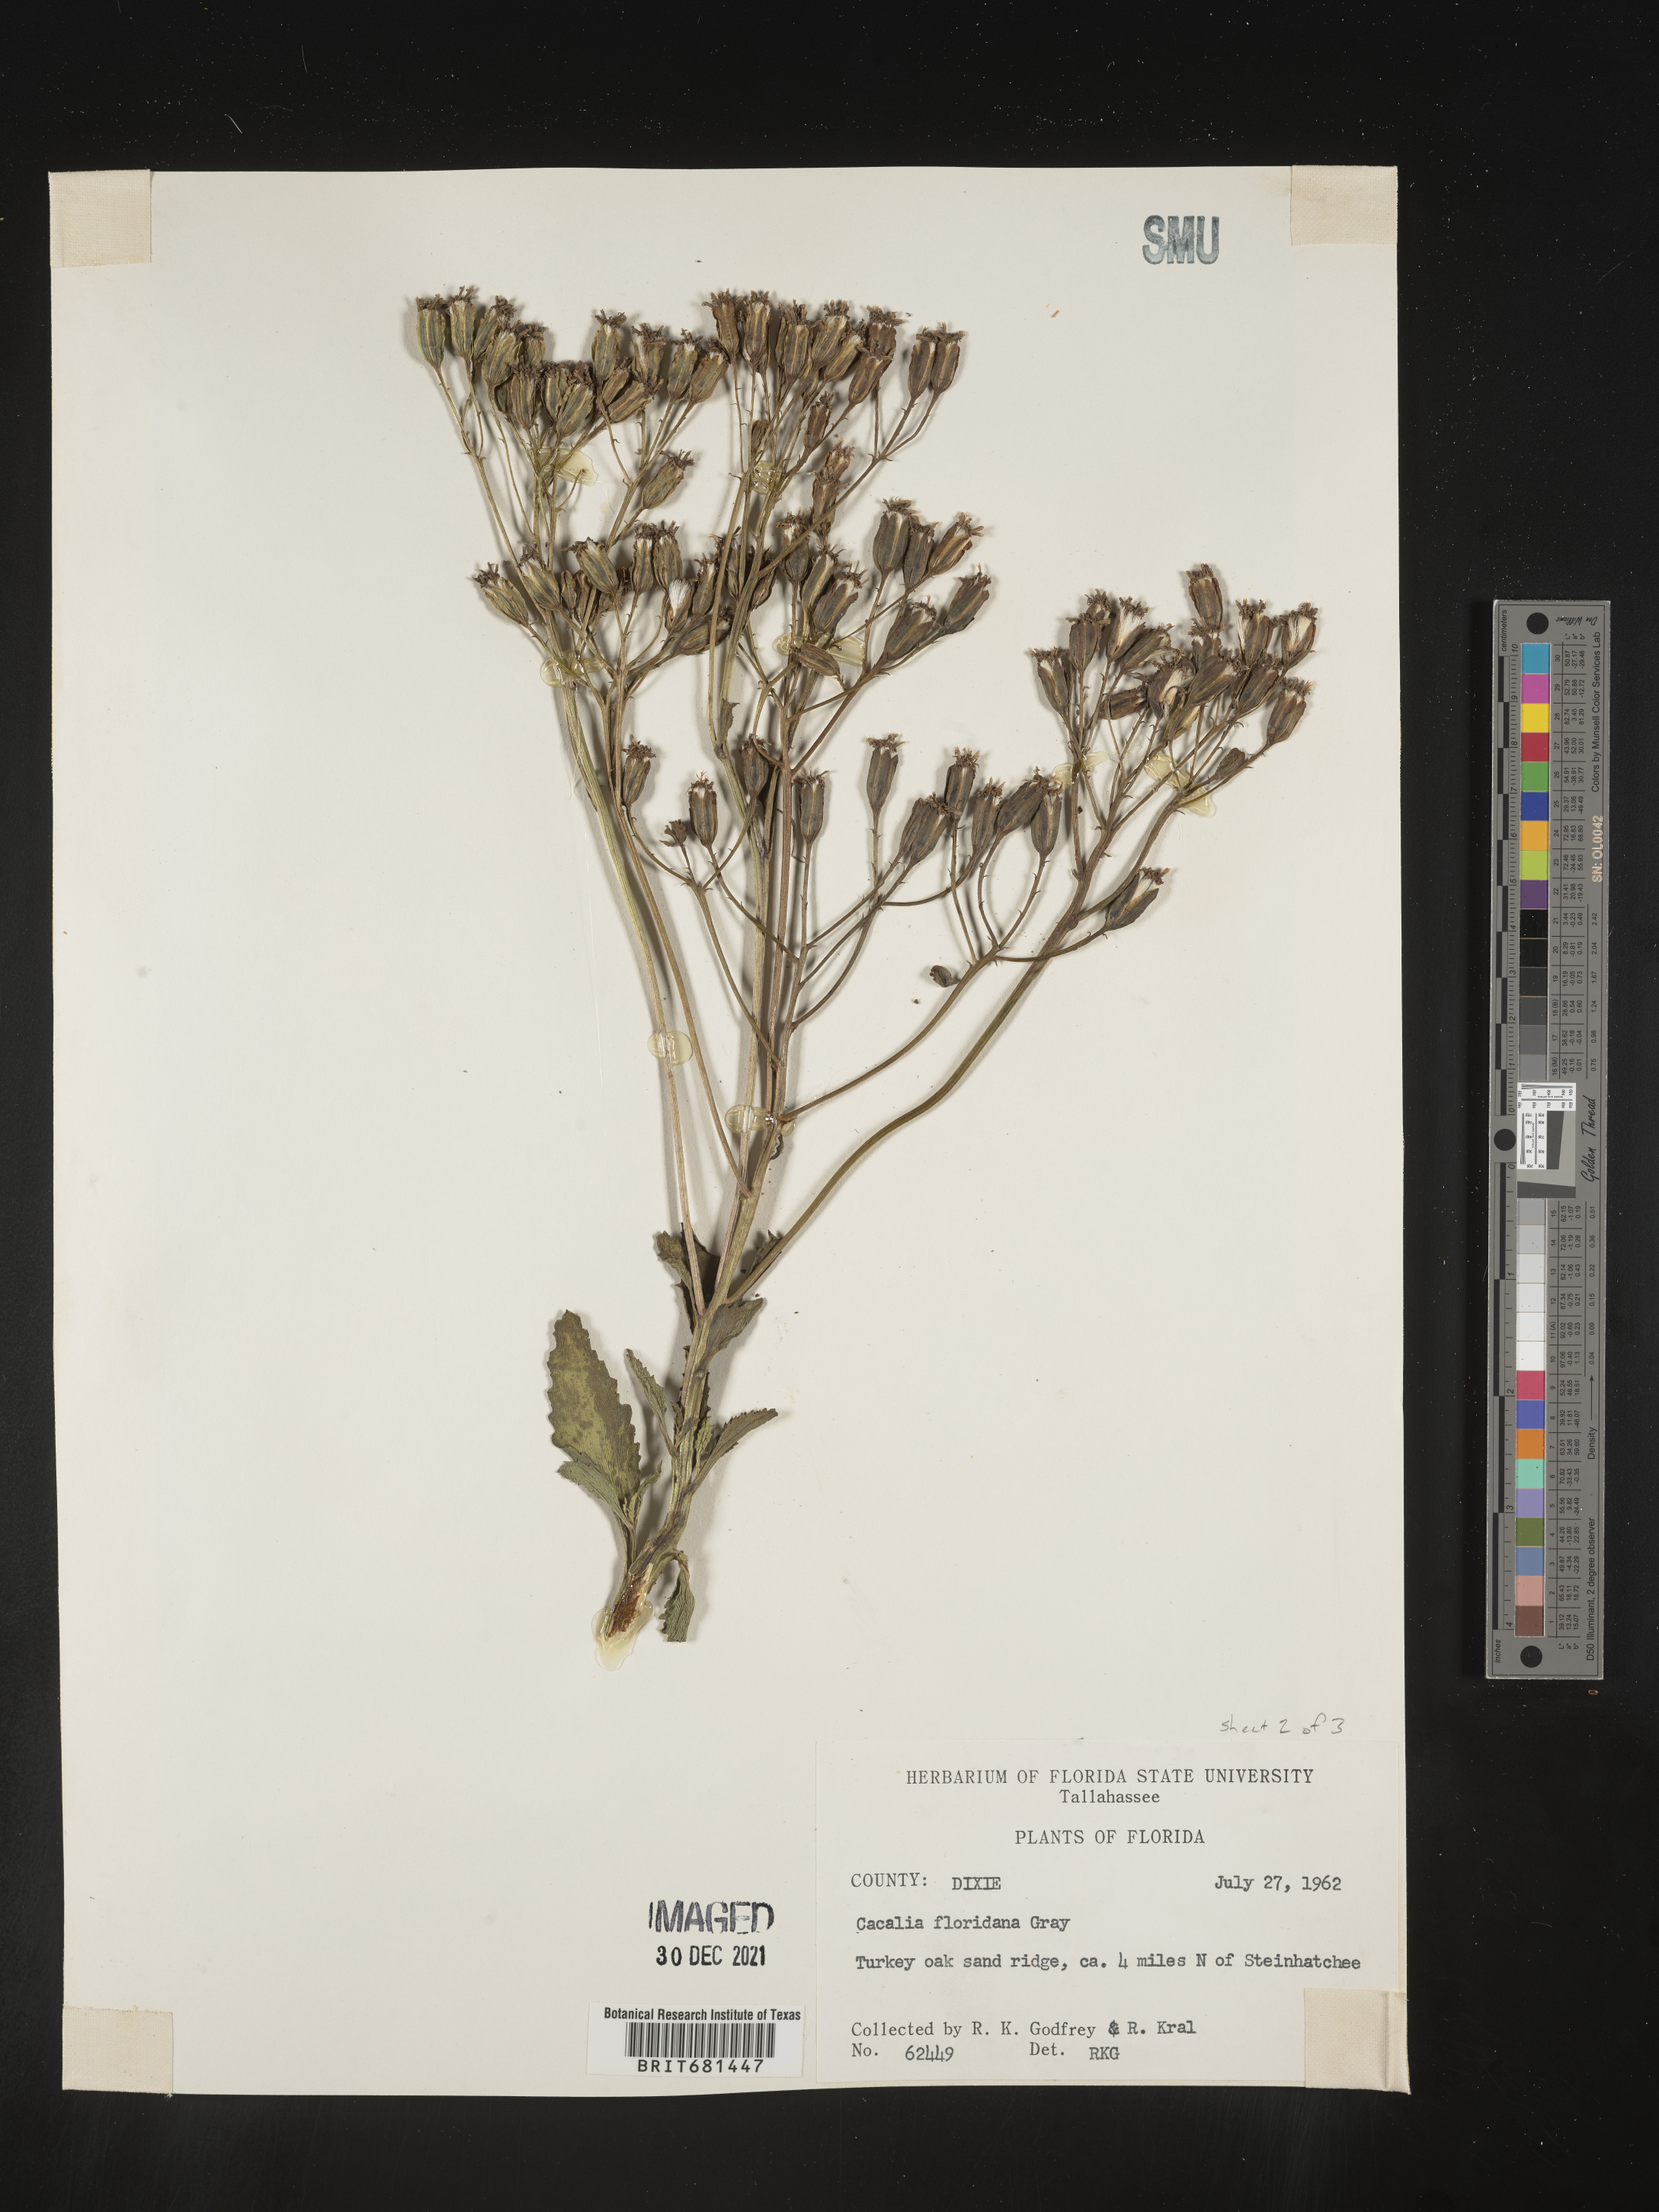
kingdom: Plantae
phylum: Tracheophyta
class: Magnoliopsida
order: Asterales
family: Asteraceae
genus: Arnoglossum
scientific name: Arnoglossum floridanum
